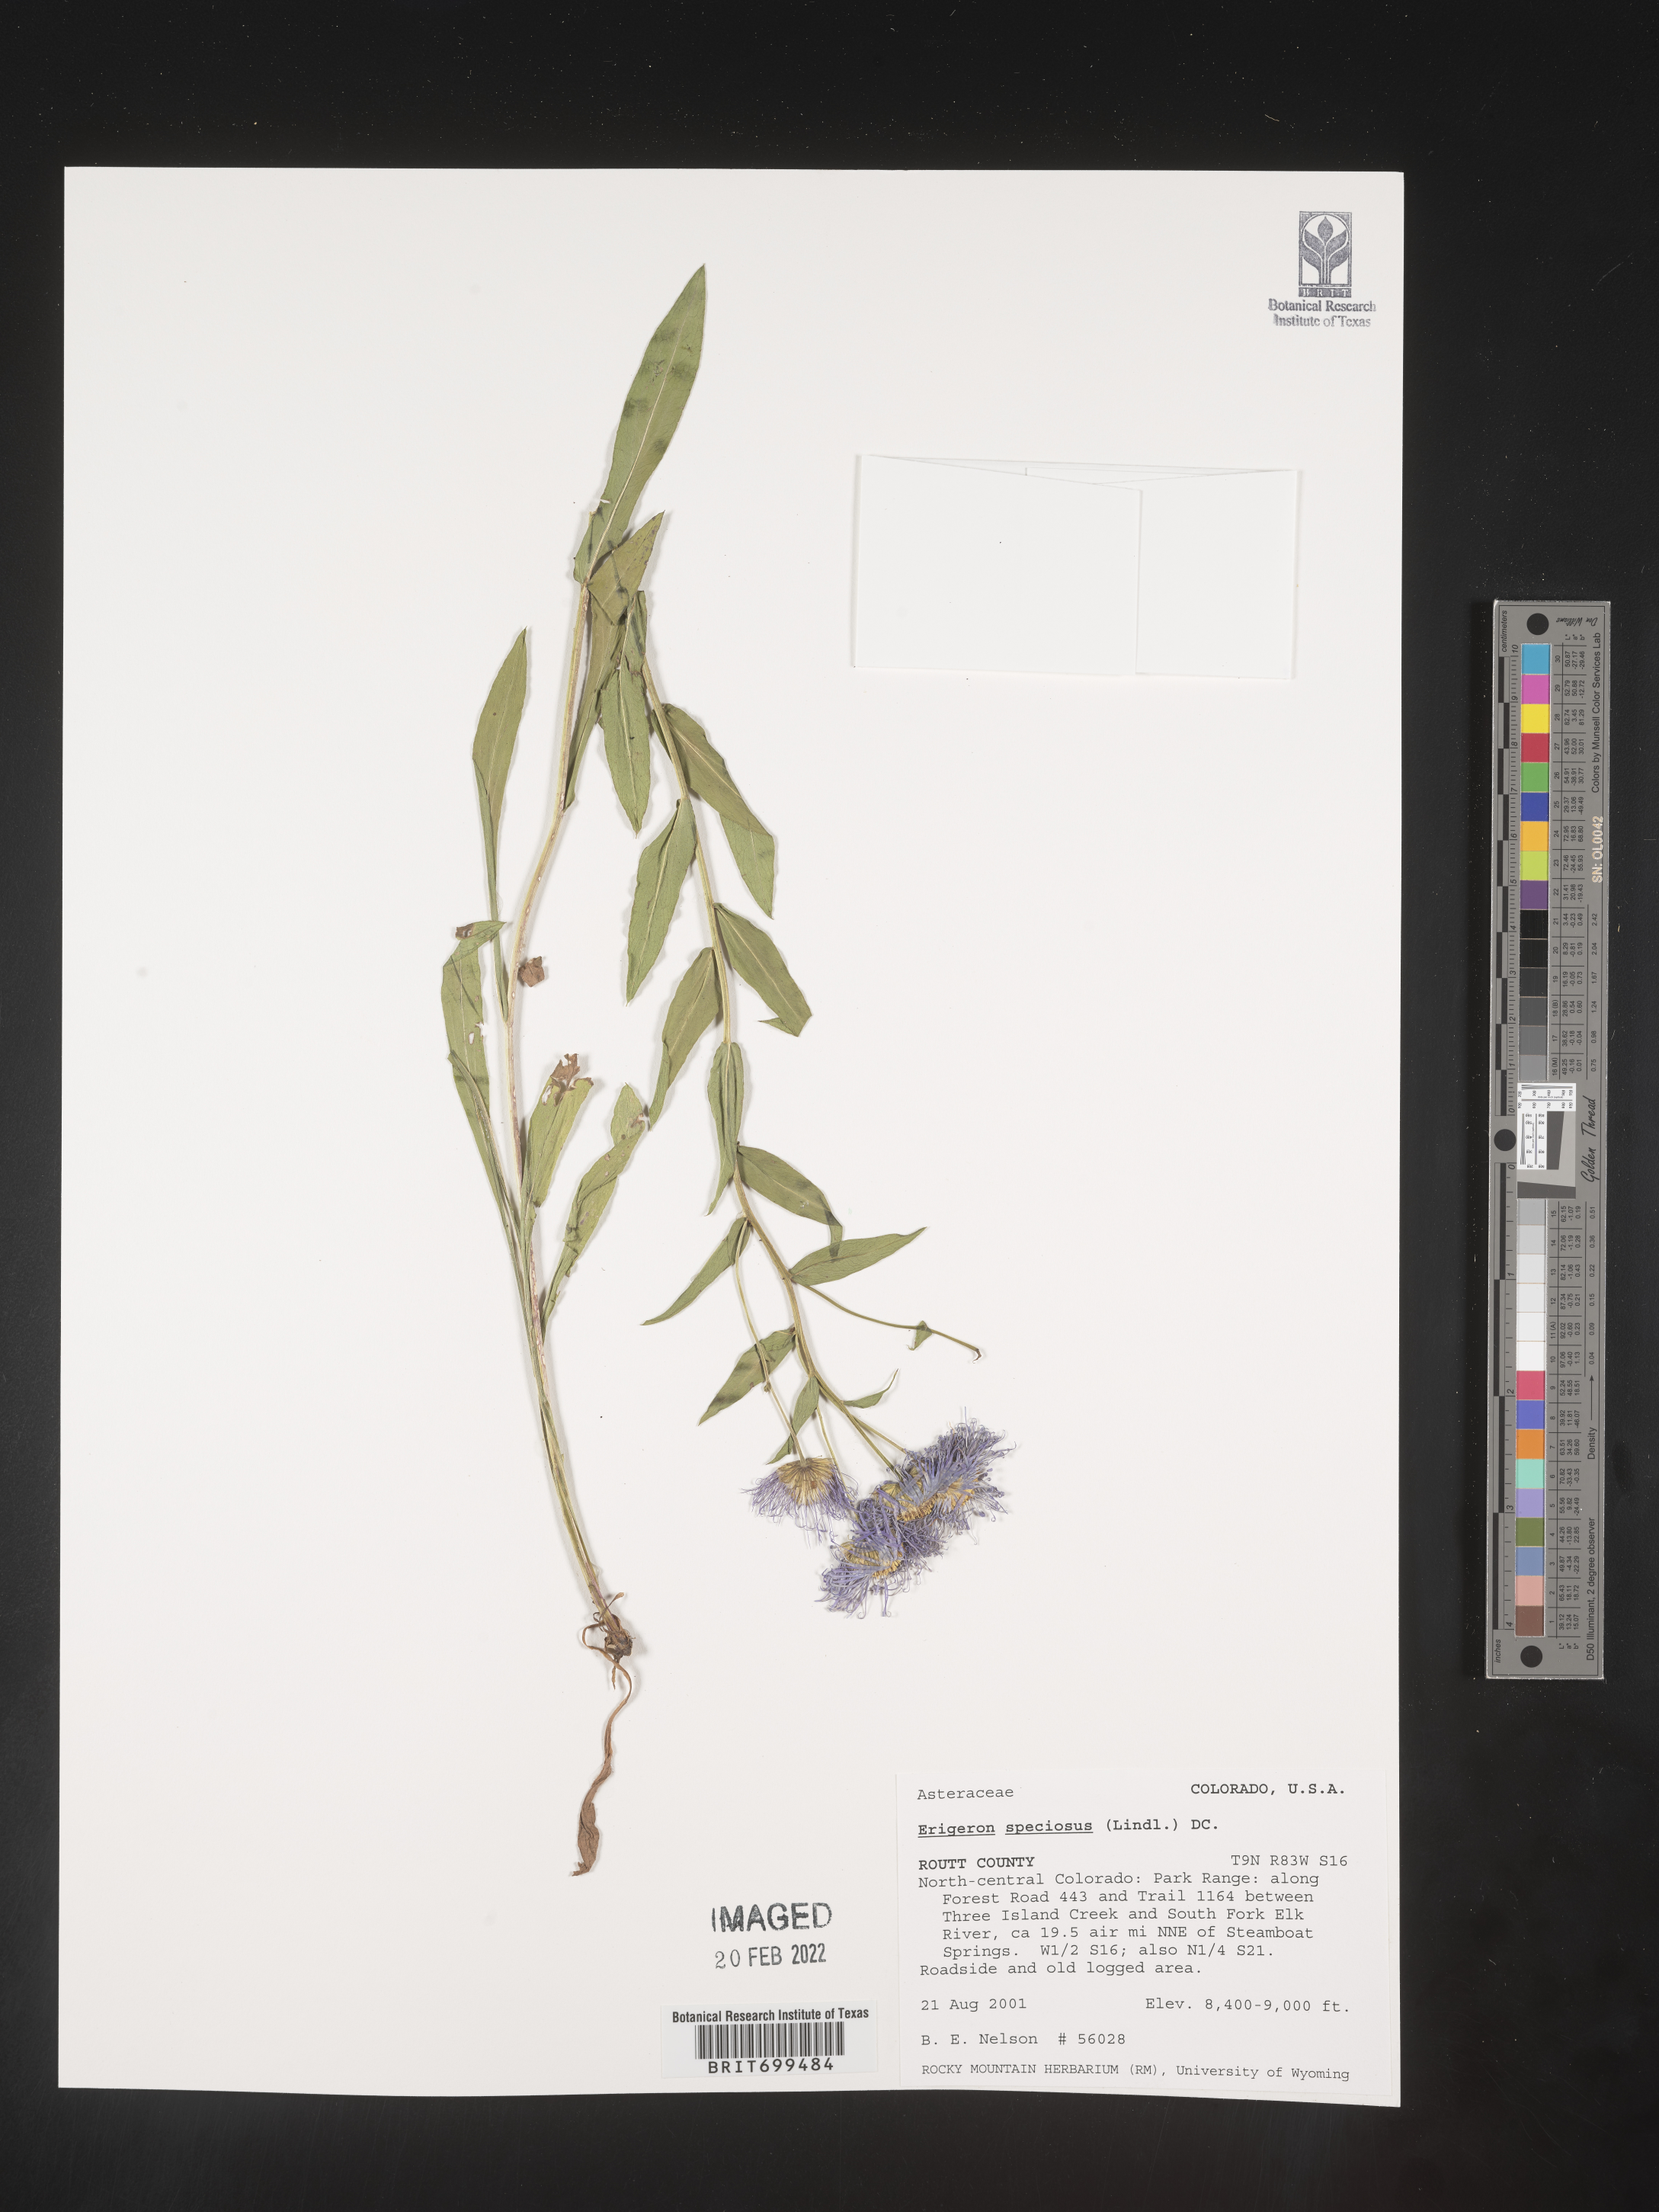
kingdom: Plantae
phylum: Tracheophyta
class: Magnoliopsida
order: Asterales
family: Asteraceae
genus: Erigeron
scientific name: Erigeron speciosus
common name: Aspen fleabane
